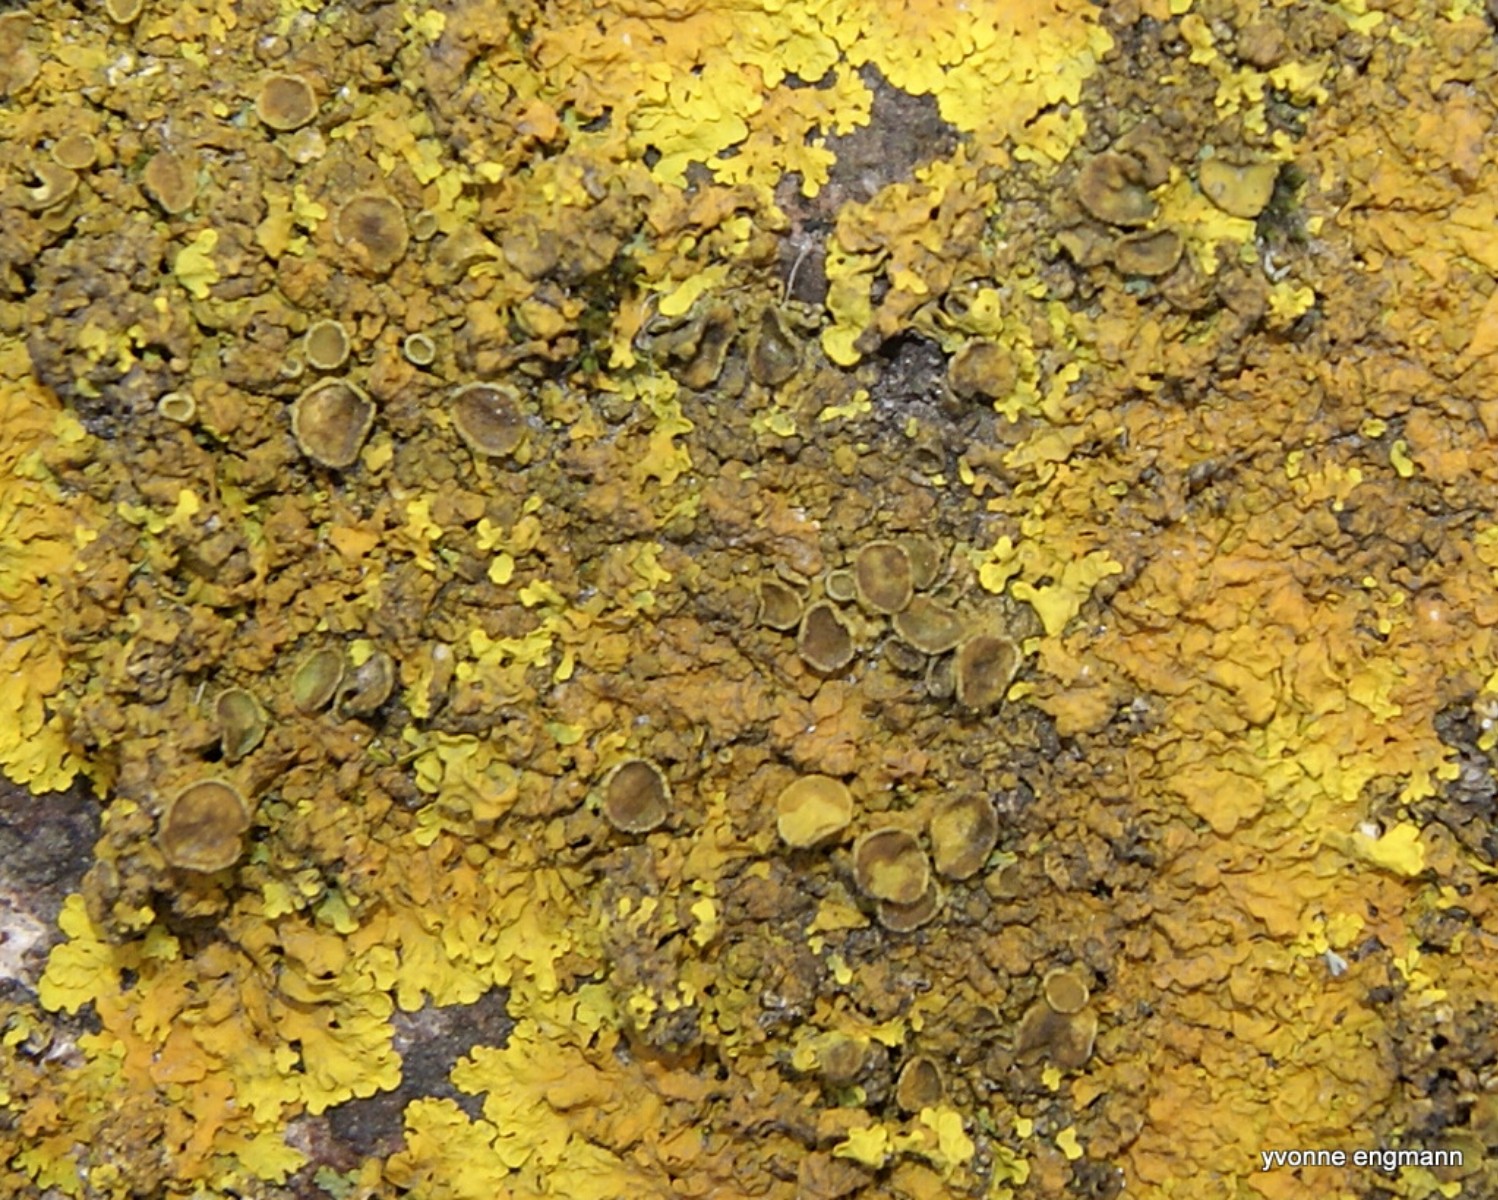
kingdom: Fungi
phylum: Ascomycota
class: Lecanoromycetes
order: Teloschistales
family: Teloschistaceae
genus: Xanthoria
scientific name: Xanthoria parietina
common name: almindelig væggelav
